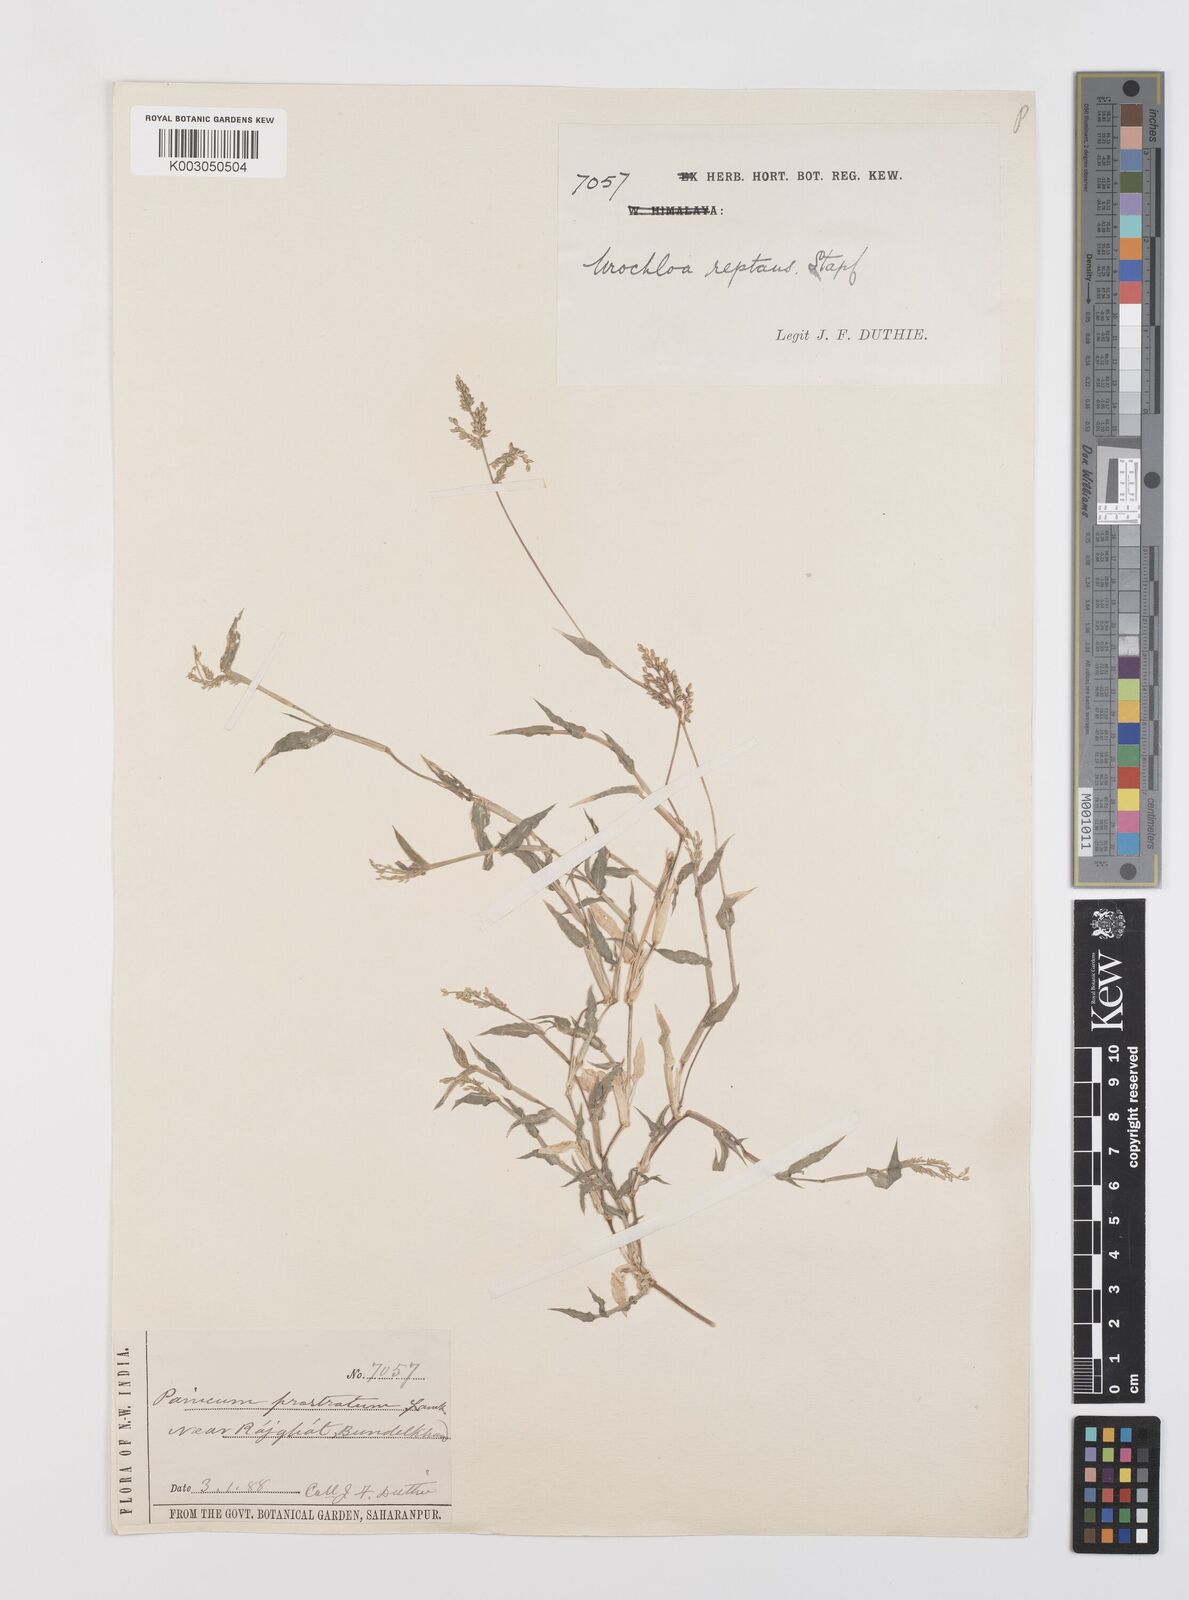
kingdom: Plantae
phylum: Tracheophyta
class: Liliopsida
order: Poales
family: Poaceae
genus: Urochloa
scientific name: Urochloa reptans
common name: Sprawling signalgrass
